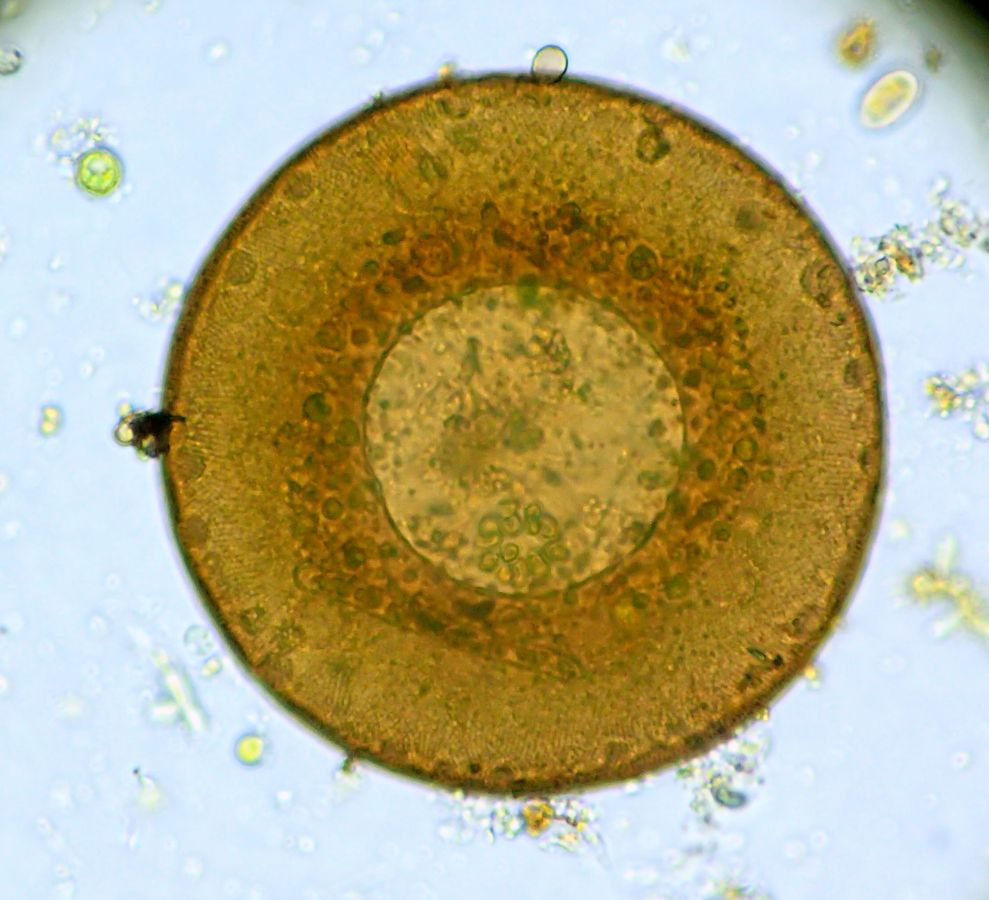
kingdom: Protozoa
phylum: Amoebozoa
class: Lobosa
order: Arcellinida
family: Arcellidae
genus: Arcella
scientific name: Arcella vulgaris
